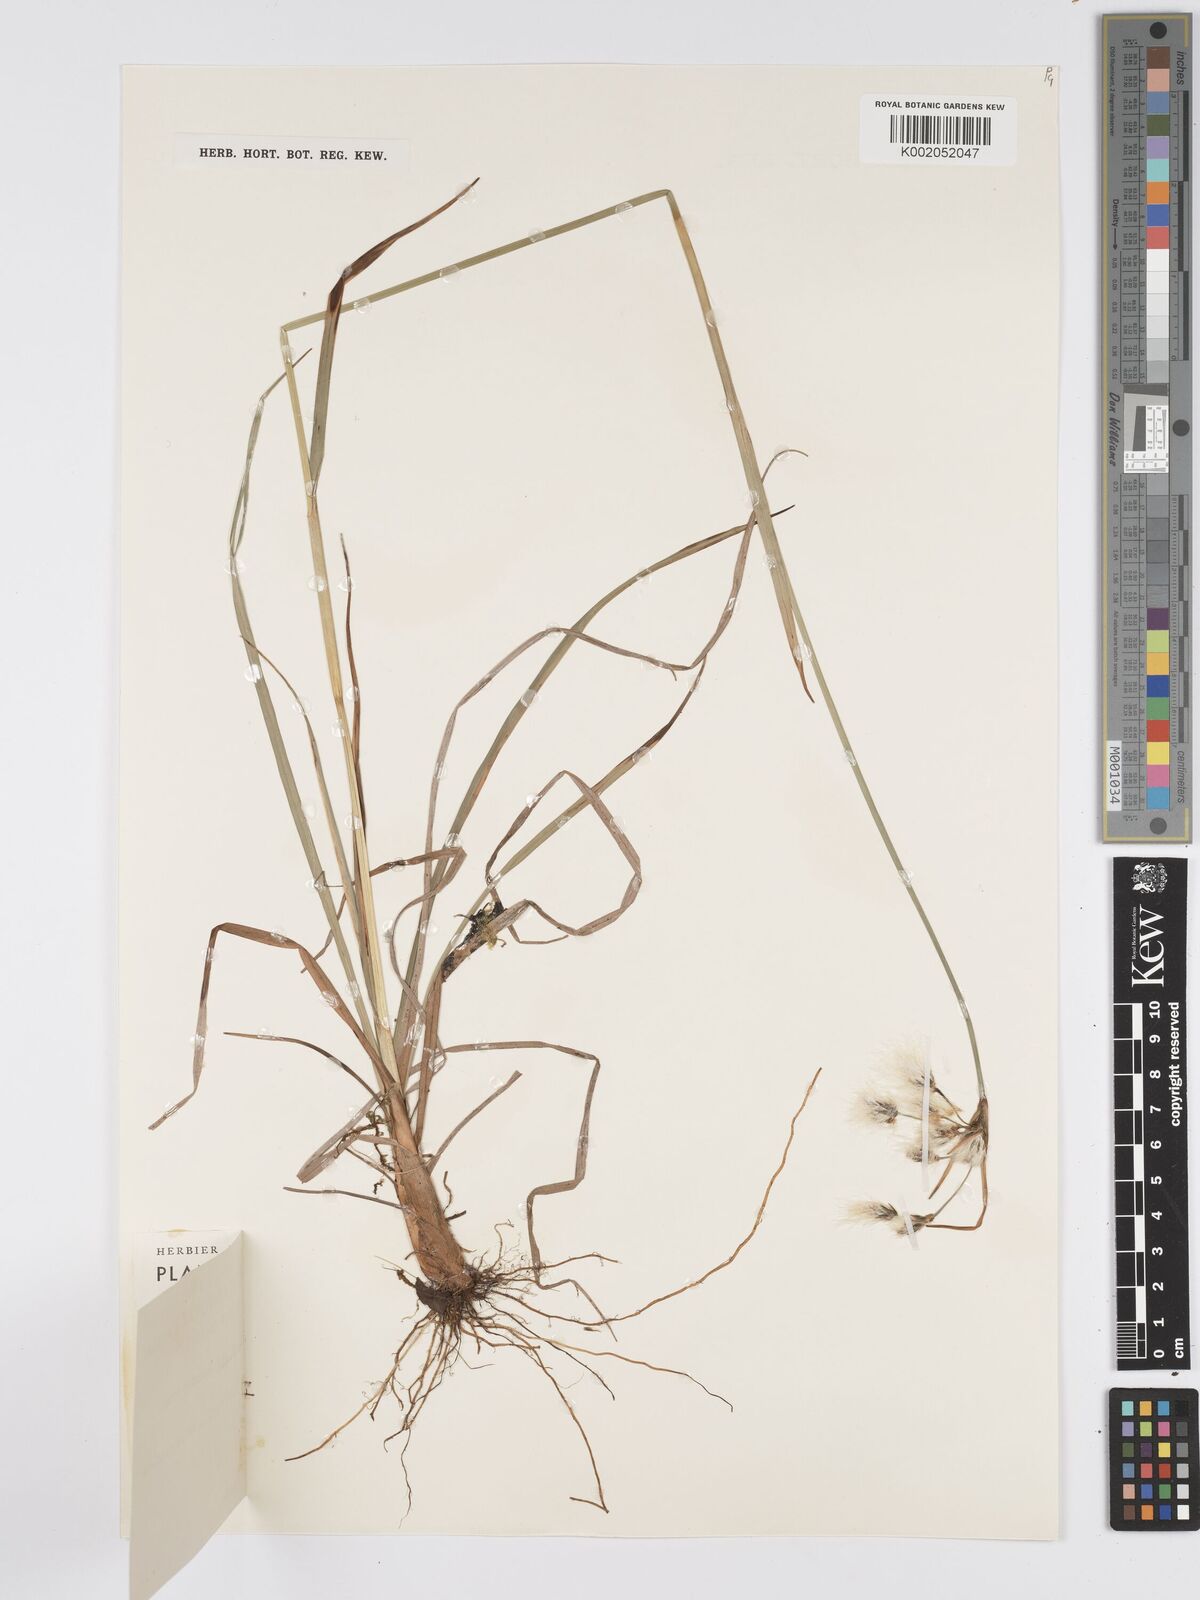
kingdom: Plantae
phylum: Tracheophyta
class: Liliopsida
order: Poales
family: Cyperaceae
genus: Eriophorum
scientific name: Eriophorum viridicarinatum
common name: Green-keeled cottongrass
